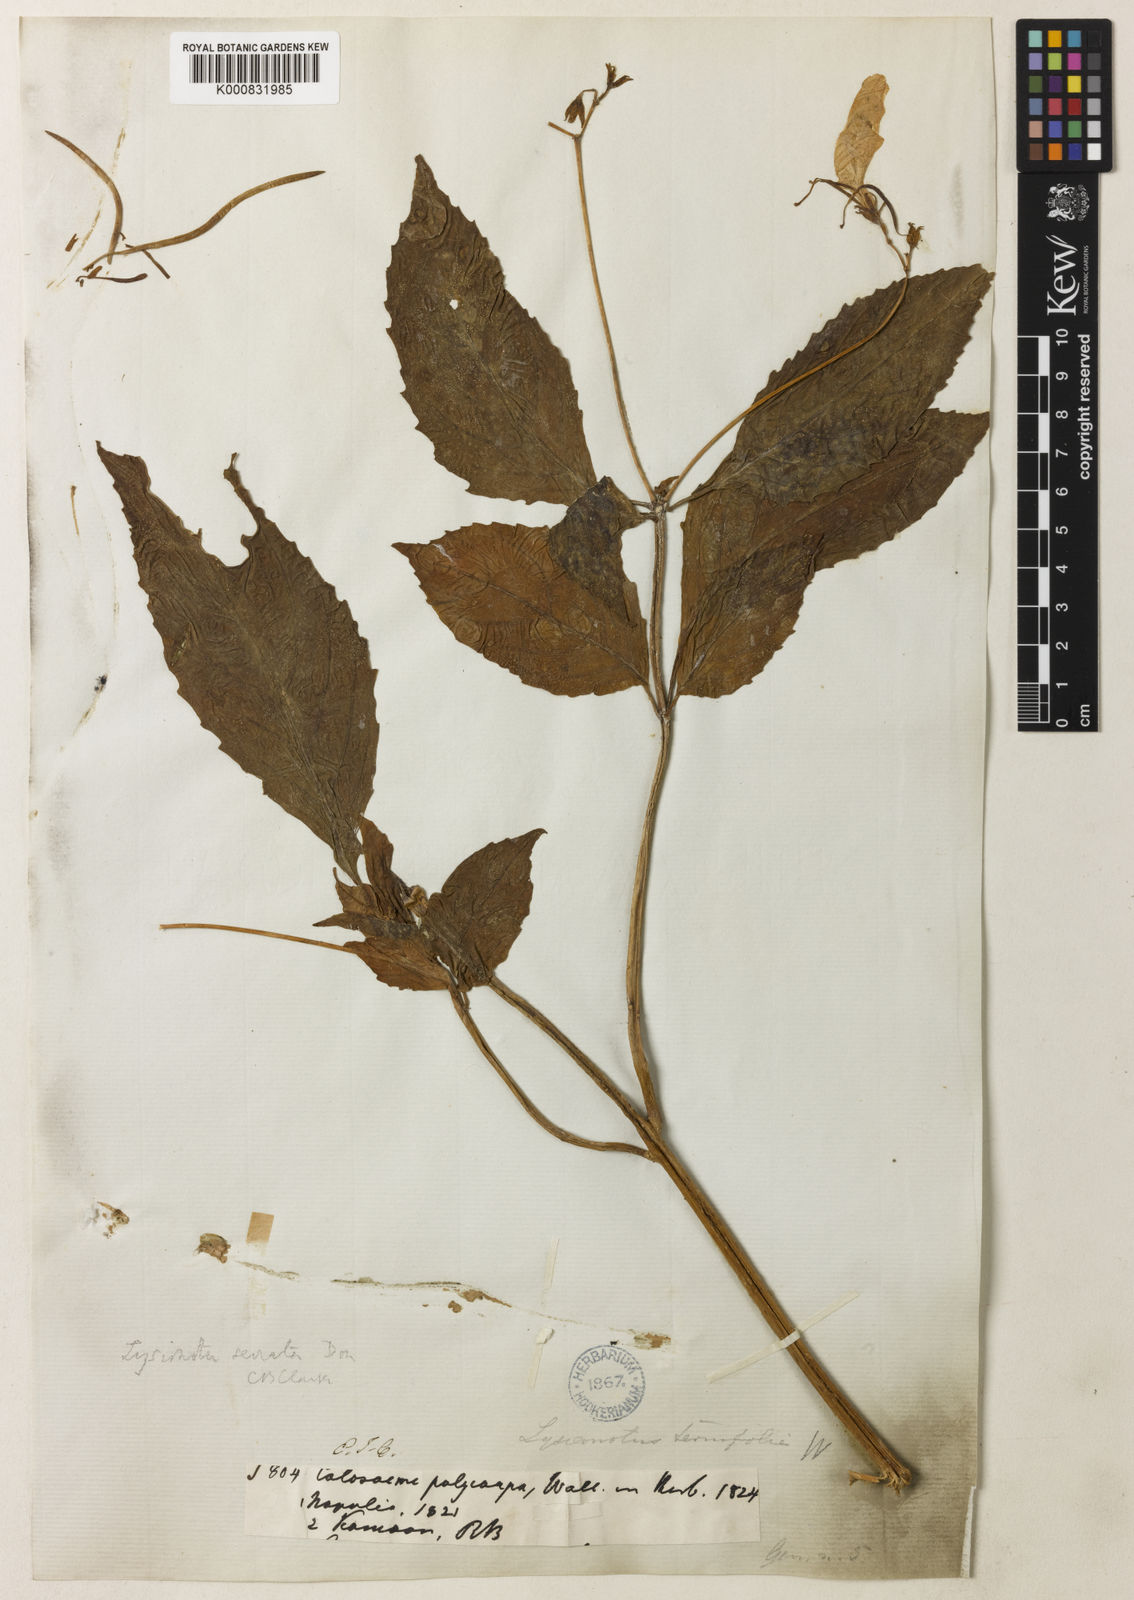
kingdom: Plantae
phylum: Tracheophyta
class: Magnoliopsida
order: Lamiales
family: Gesneriaceae
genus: Lysionotus
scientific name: Lysionotus serratus
